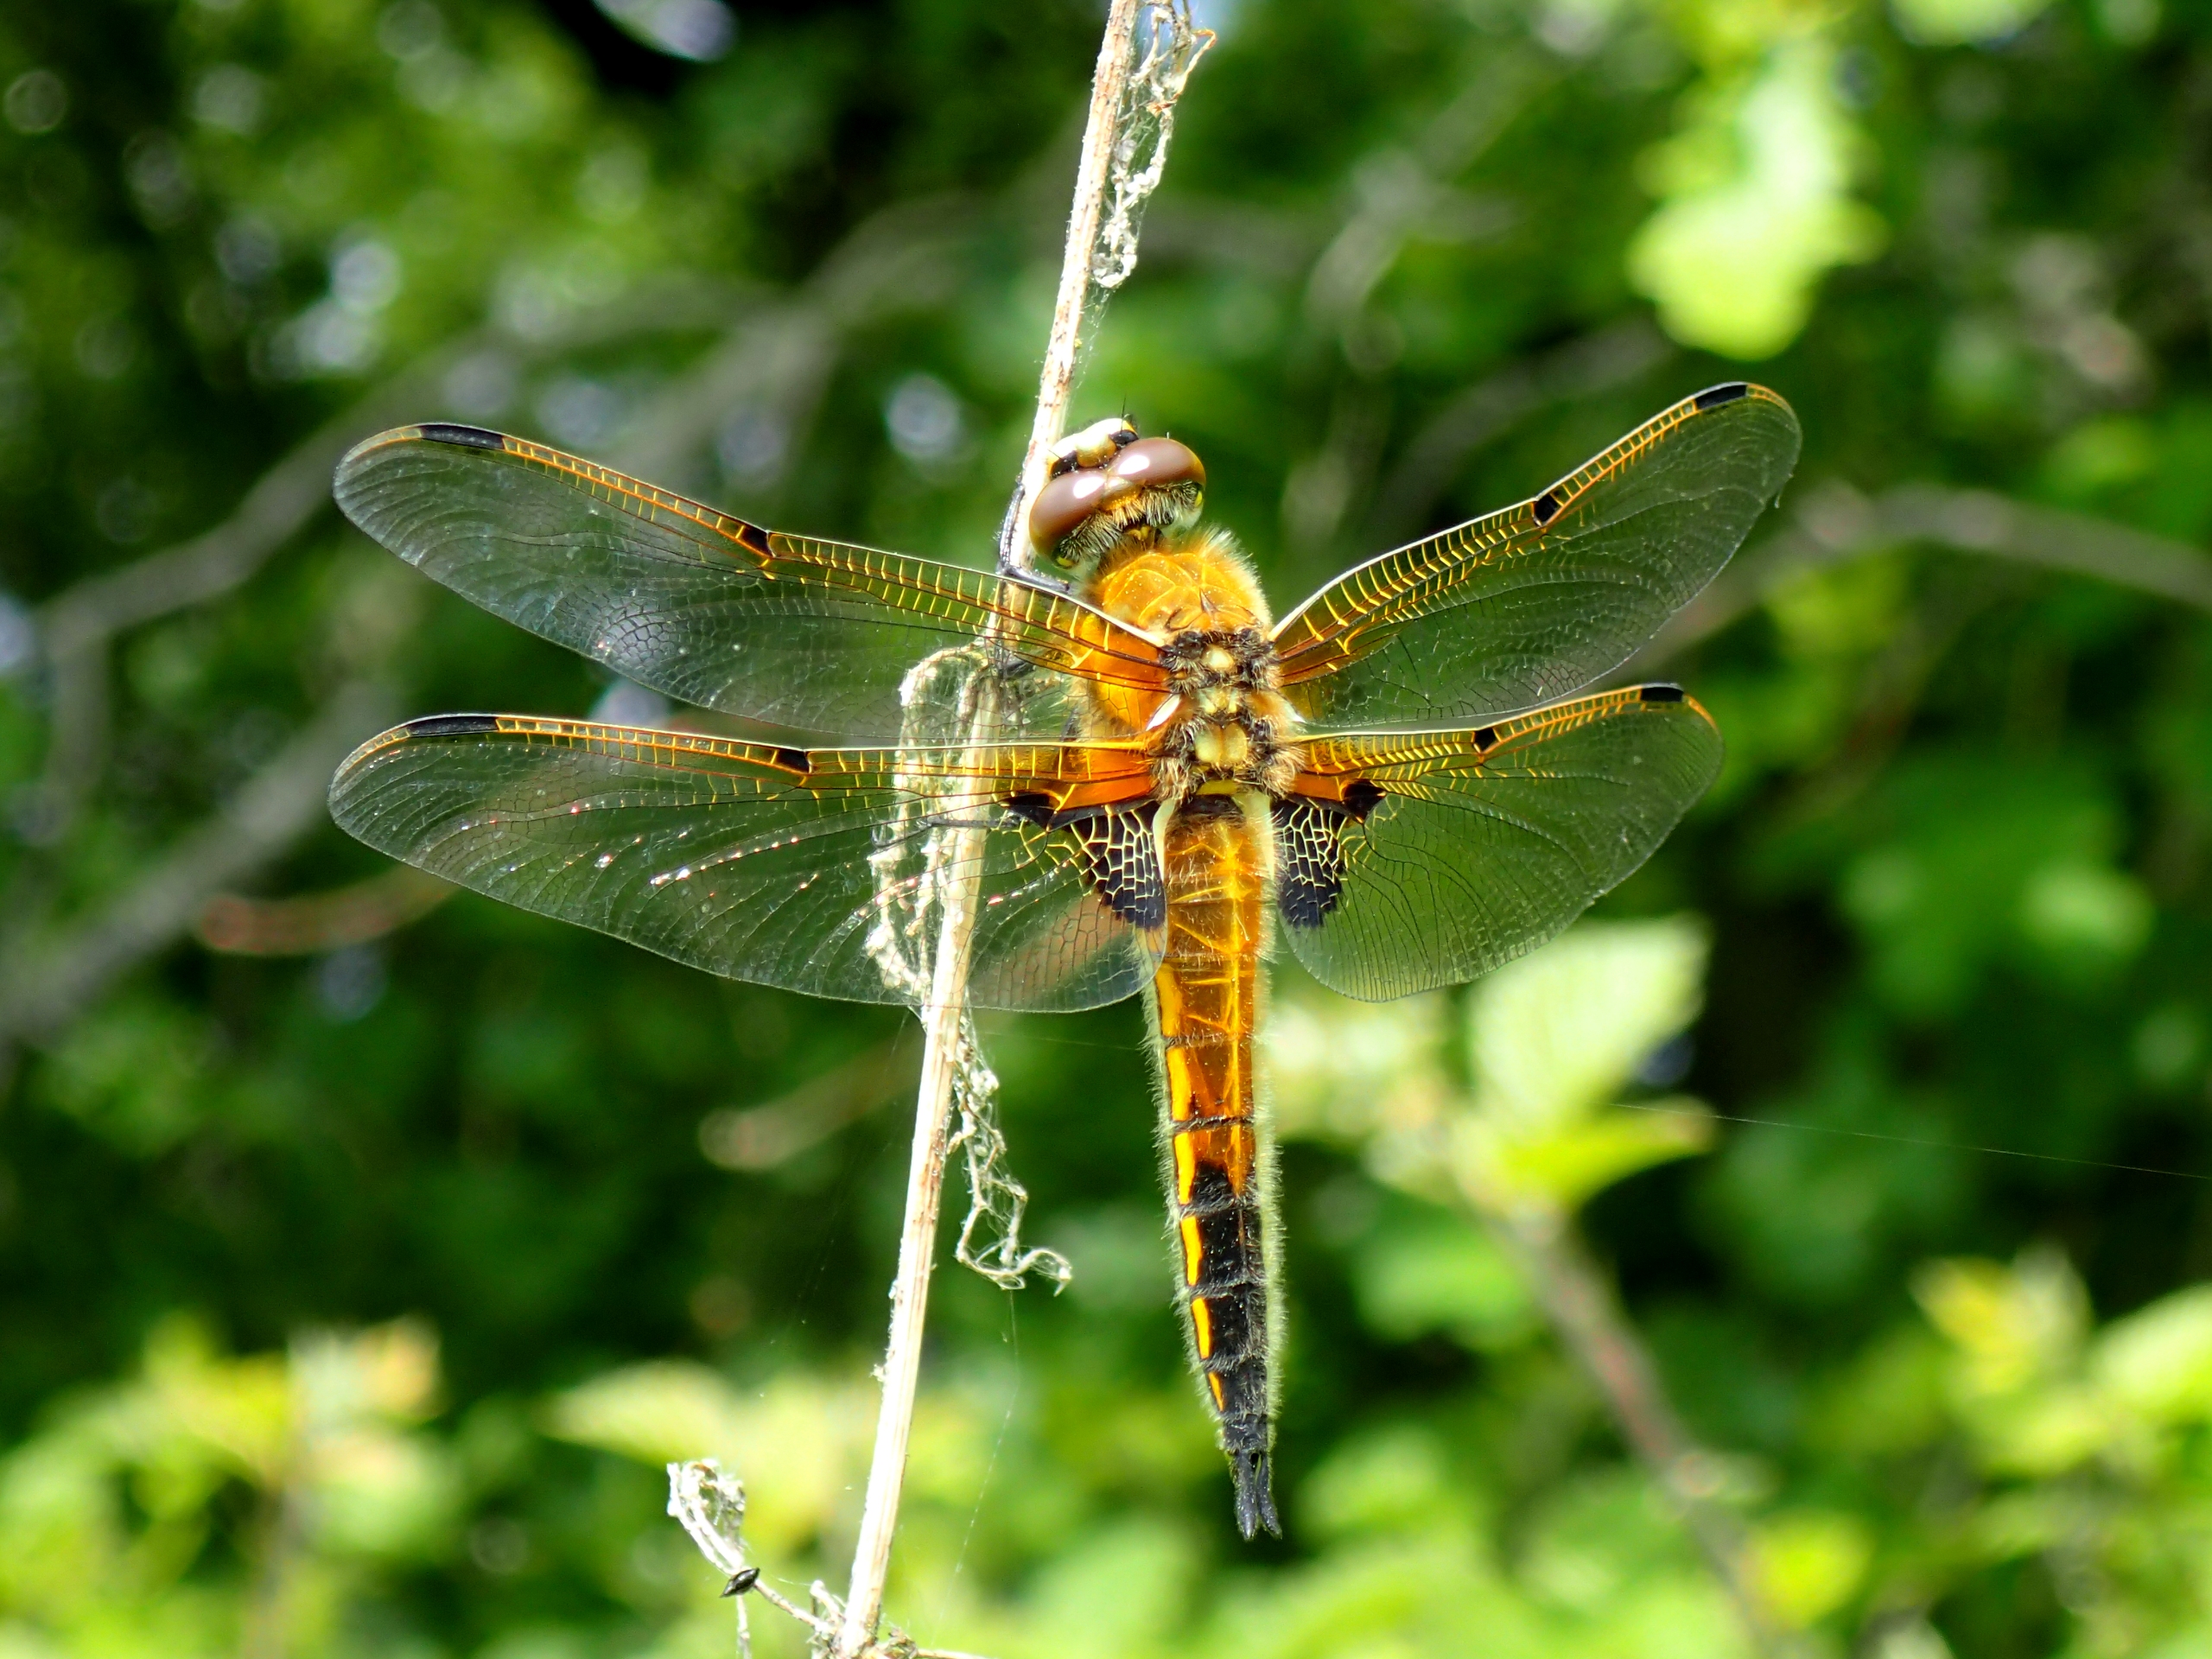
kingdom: Animalia
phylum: Arthropoda
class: Insecta
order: Odonata
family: Libellulidae
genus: Libellula
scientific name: Libellula quadrimaculata
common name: Fireplettet libel
